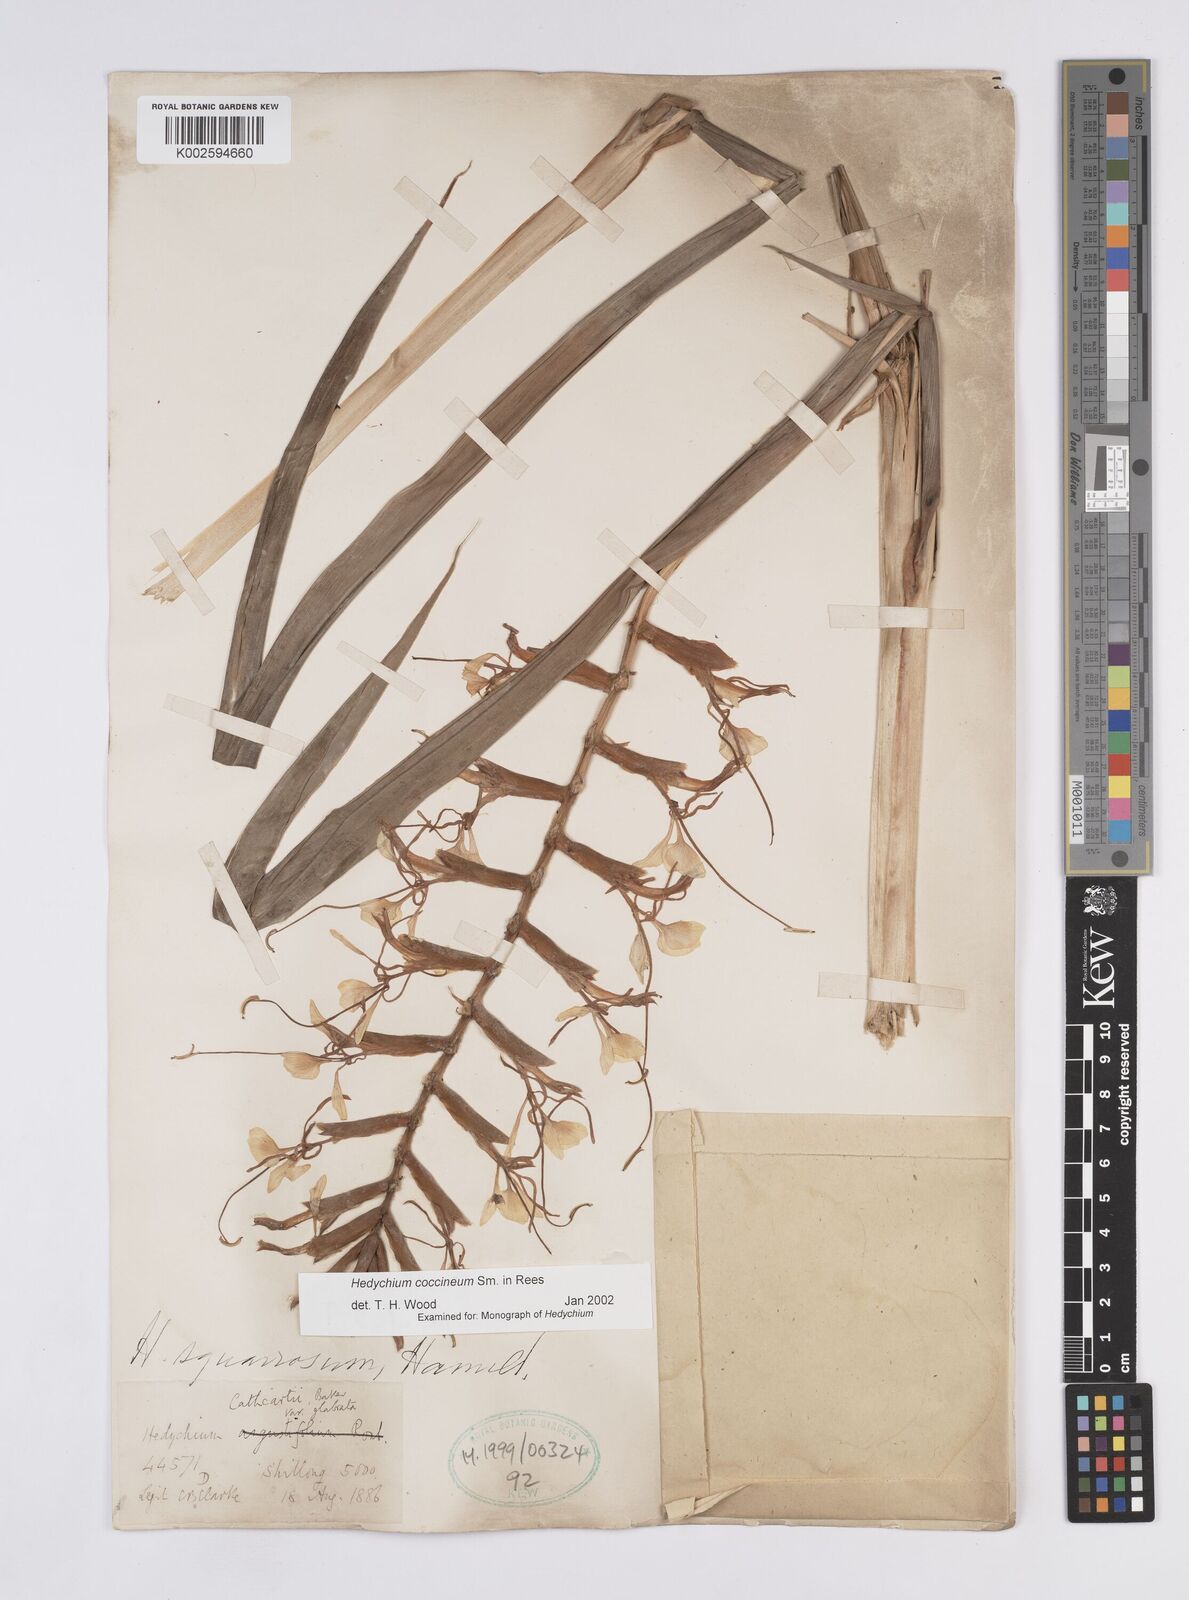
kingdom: Plantae
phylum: Tracheophyta
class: Liliopsida
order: Zingiberales
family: Zingiberaceae
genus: Hedychium
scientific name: Hedychium coccineum
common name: Red ginger-lily
